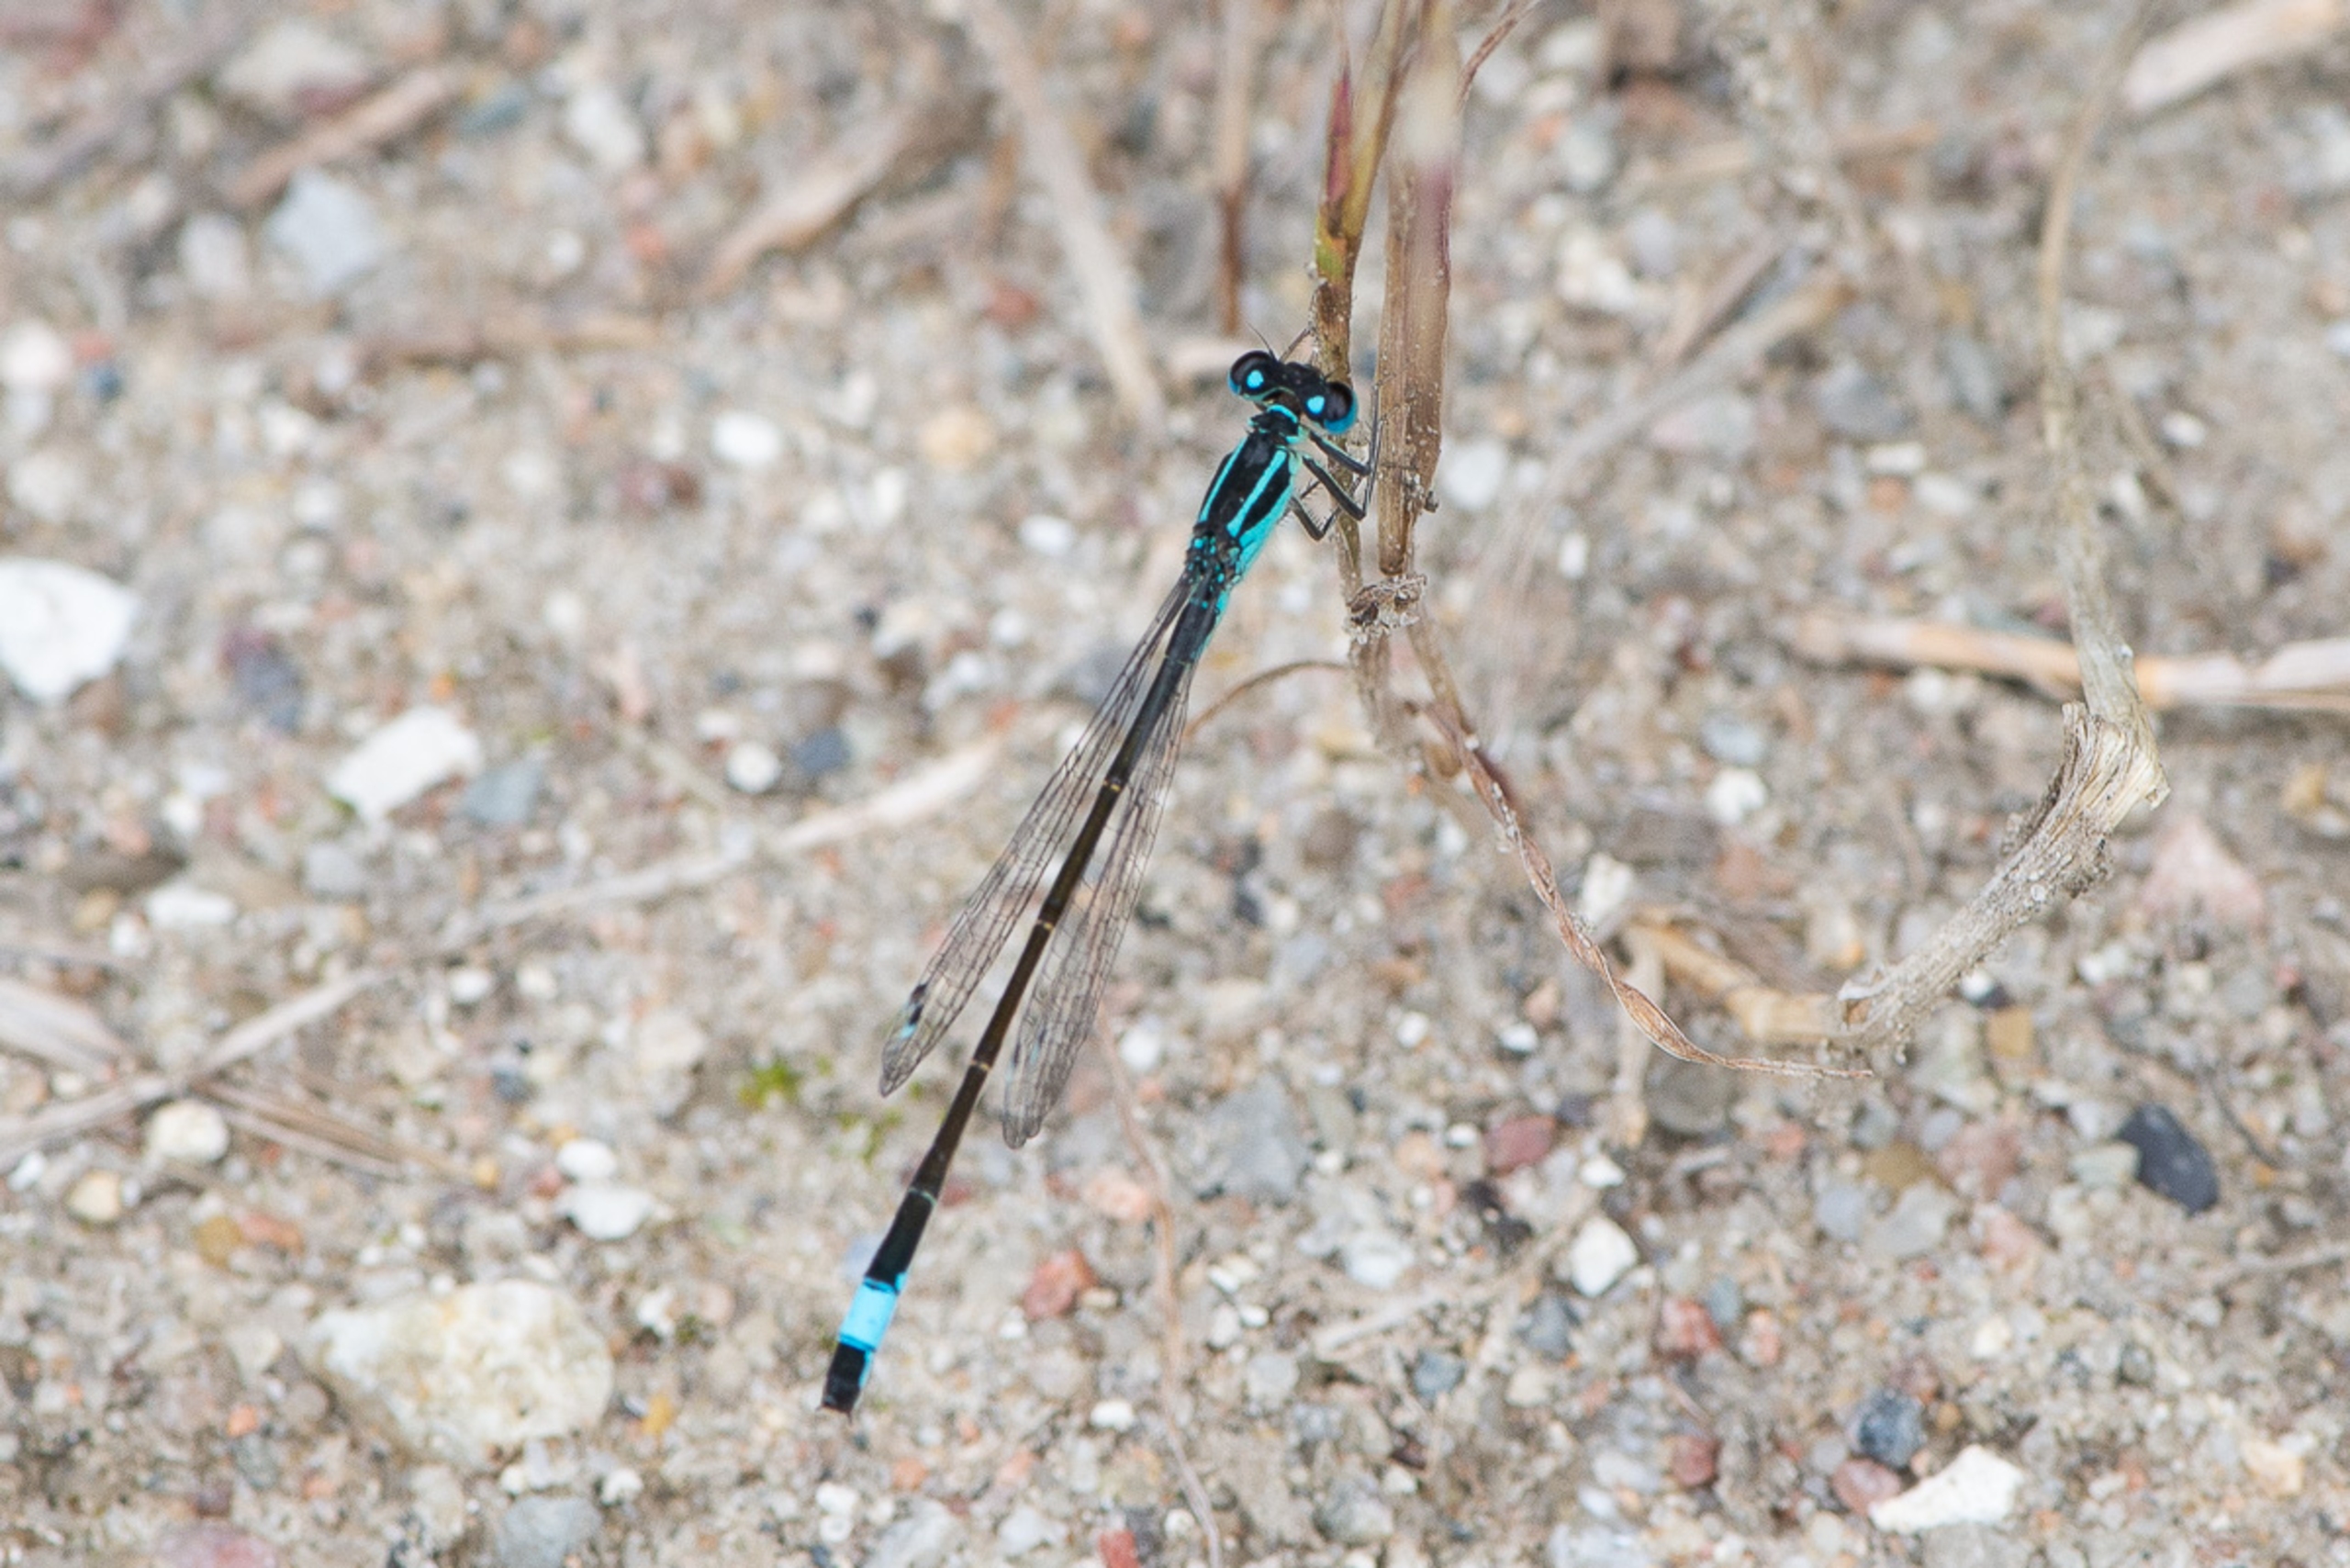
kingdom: Animalia
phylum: Arthropoda
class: Insecta
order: Odonata
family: Coenagrionidae
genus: Ischnura
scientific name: Ischnura elegans
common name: Stor farvevandnymfe
